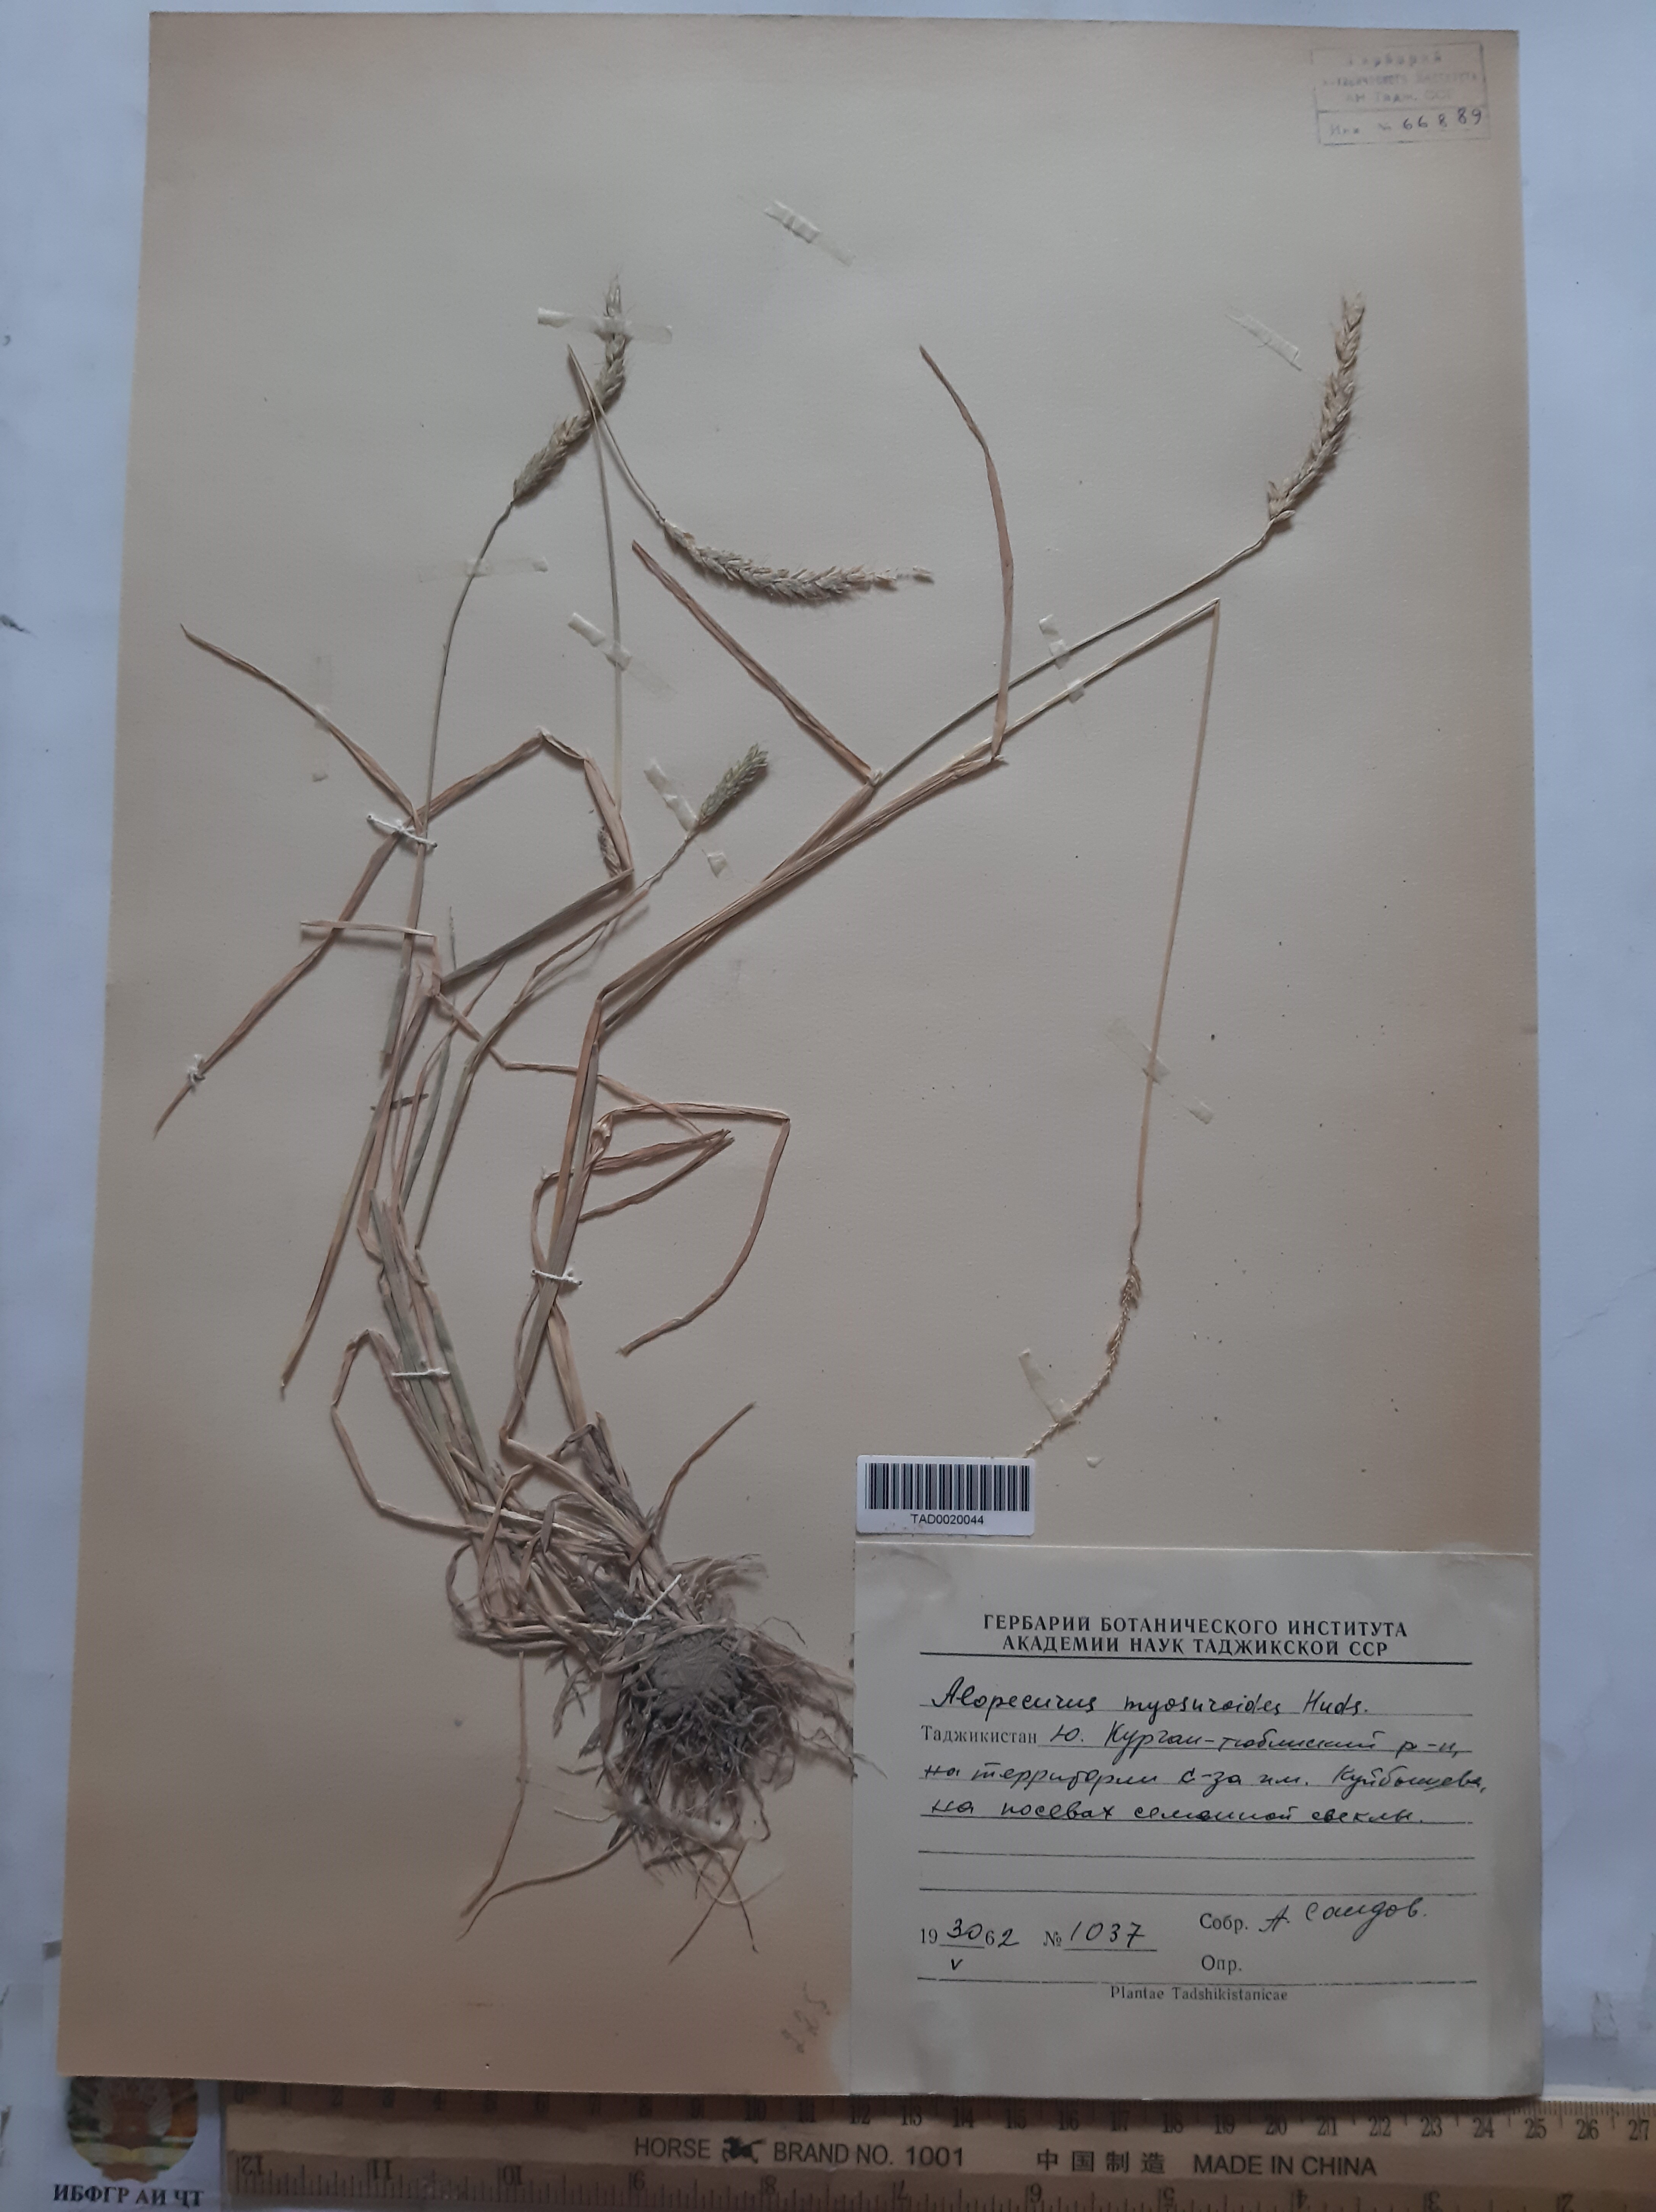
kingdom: Plantae
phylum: Tracheophyta
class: Liliopsida
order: Poales
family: Poaceae
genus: Alopecurus
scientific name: Alopecurus myosuroides
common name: Black-grass
